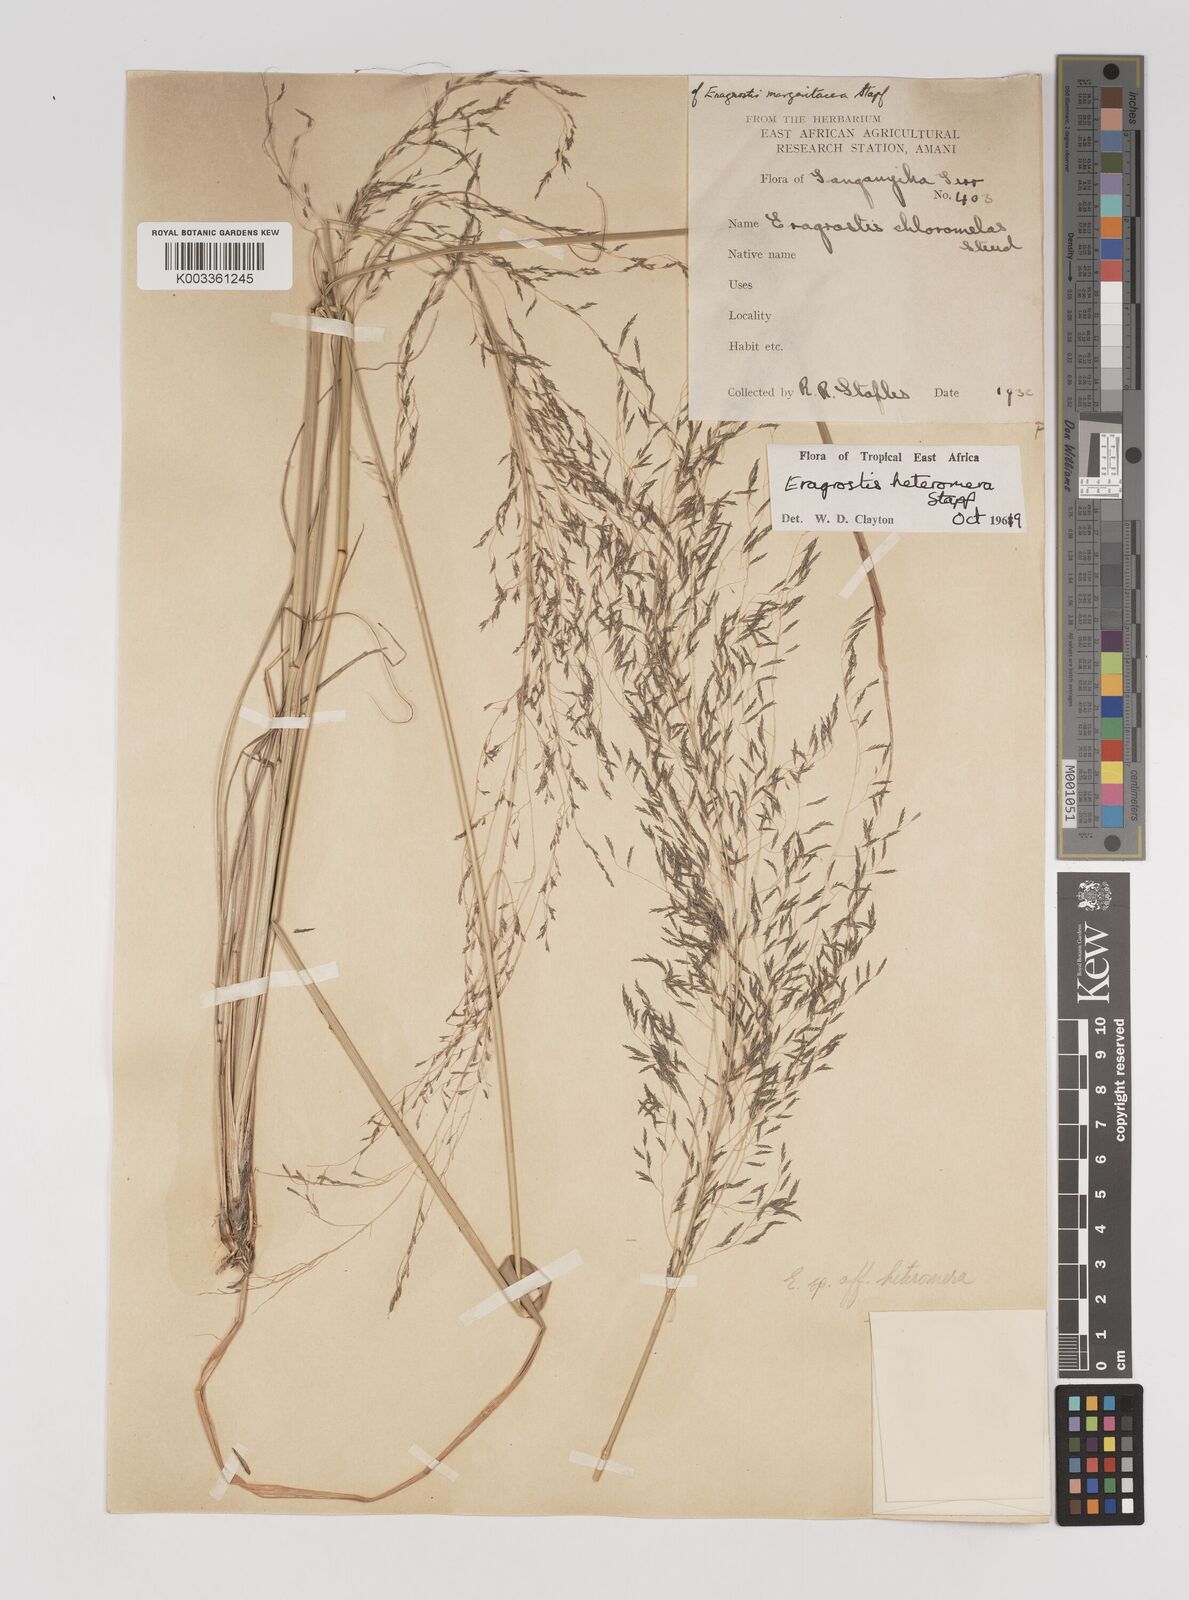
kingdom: Plantae
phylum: Tracheophyta
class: Liliopsida
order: Poales
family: Poaceae
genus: Eragrostis
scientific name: Eragrostis heteromera
